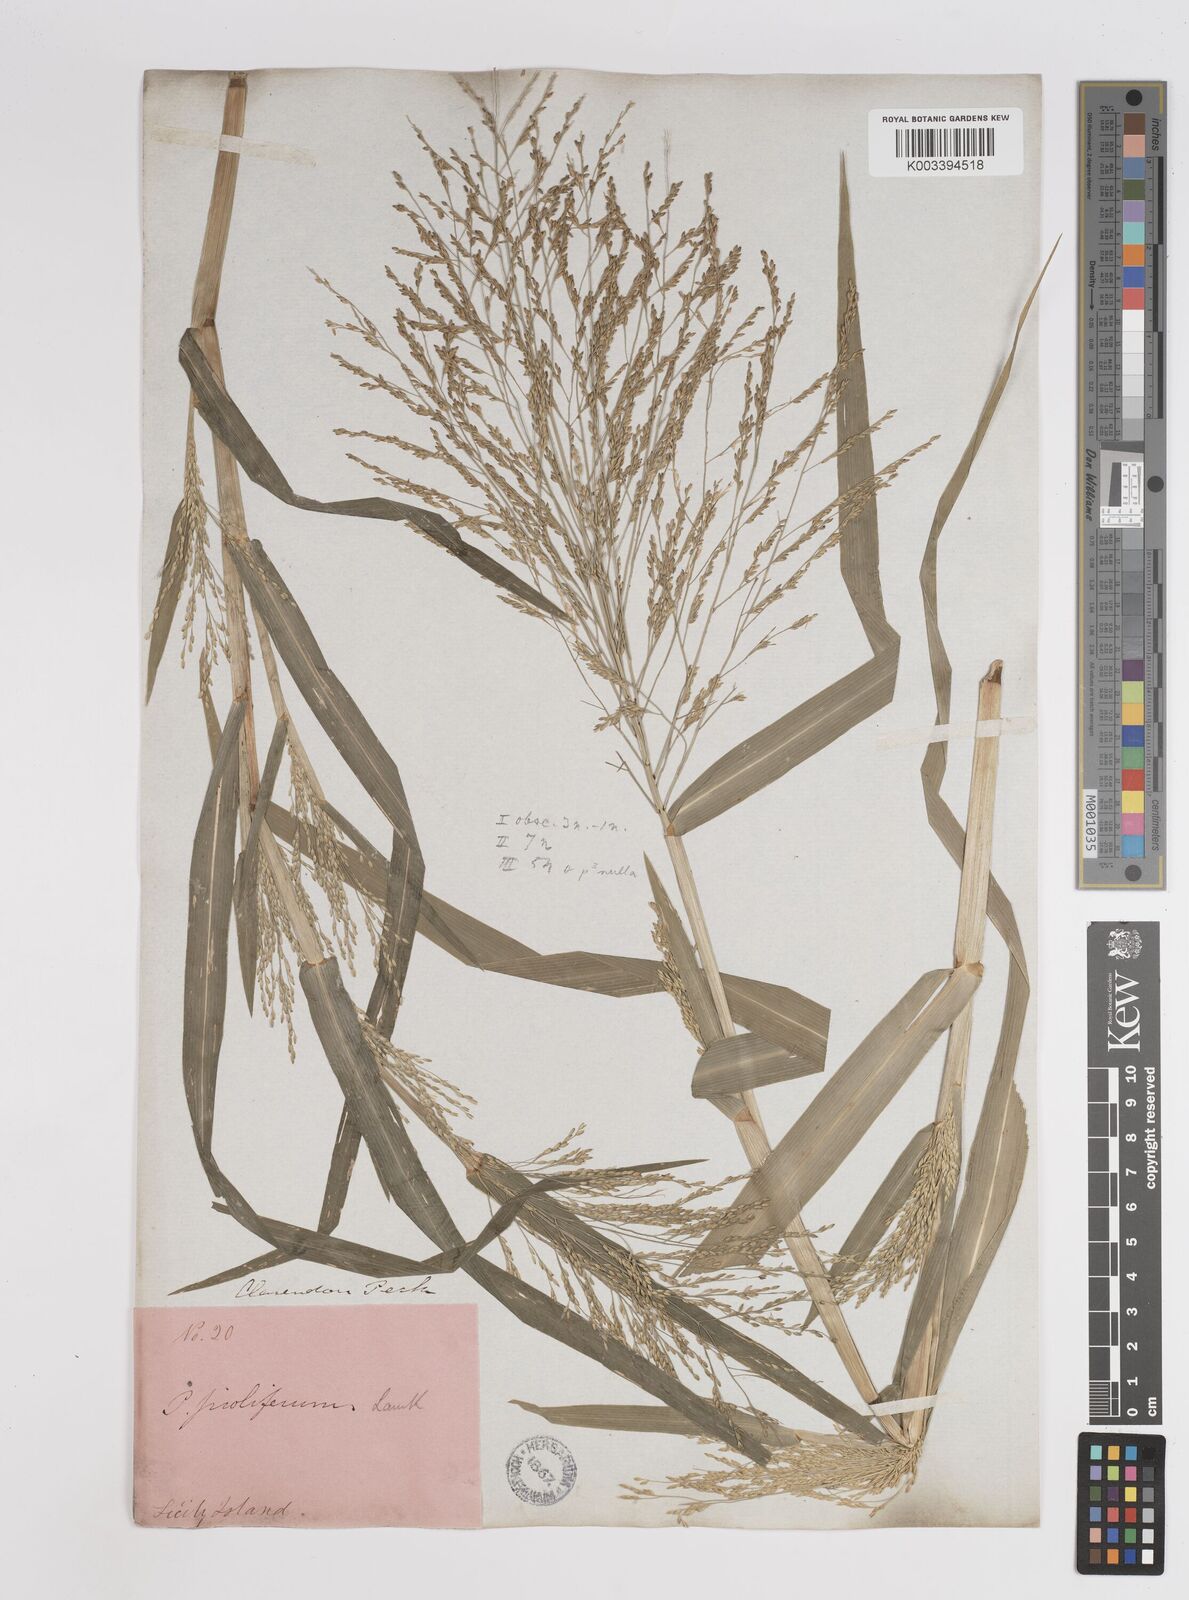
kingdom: Plantae
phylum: Tracheophyta
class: Liliopsida
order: Poales
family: Poaceae
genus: Panicum
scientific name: Panicum dichotomiflorum
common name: Autumn millet
